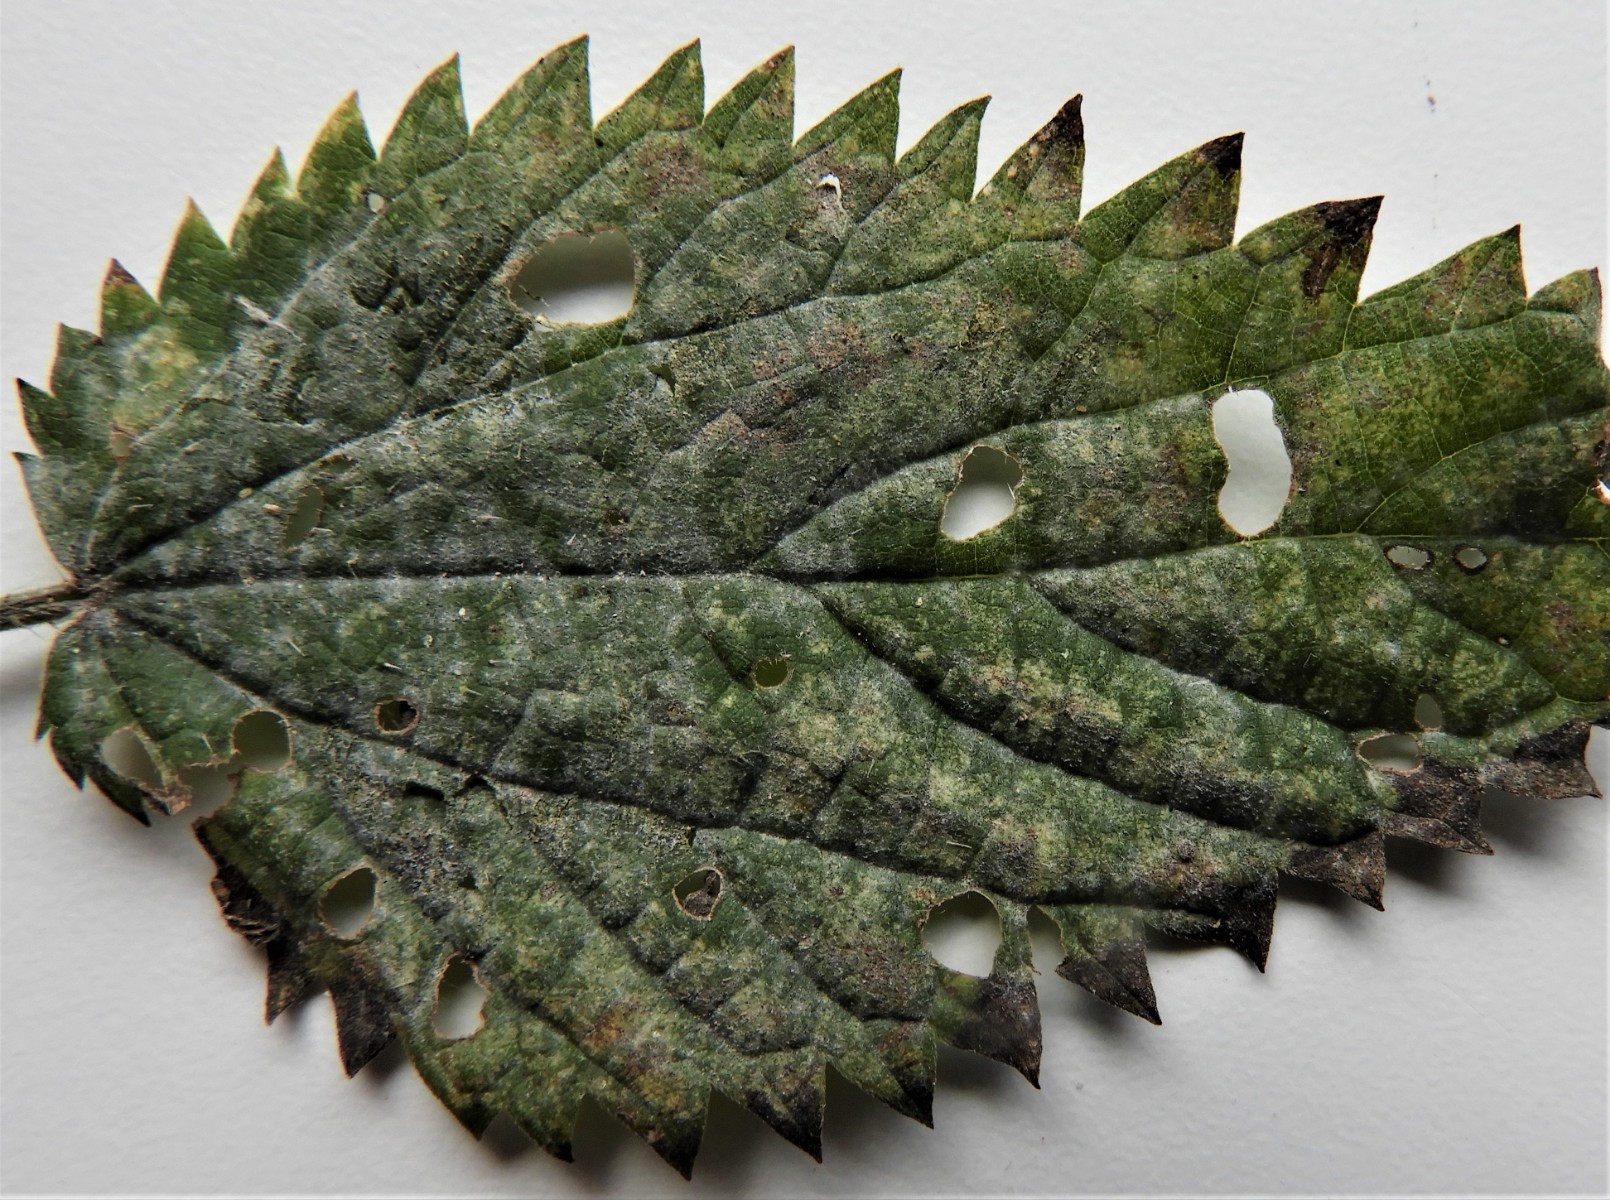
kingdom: Fungi
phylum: Ascomycota
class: Leotiomycetes
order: Helotiales
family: Erysiphaceae
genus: Erysiphe
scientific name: Erysiphe urticae
